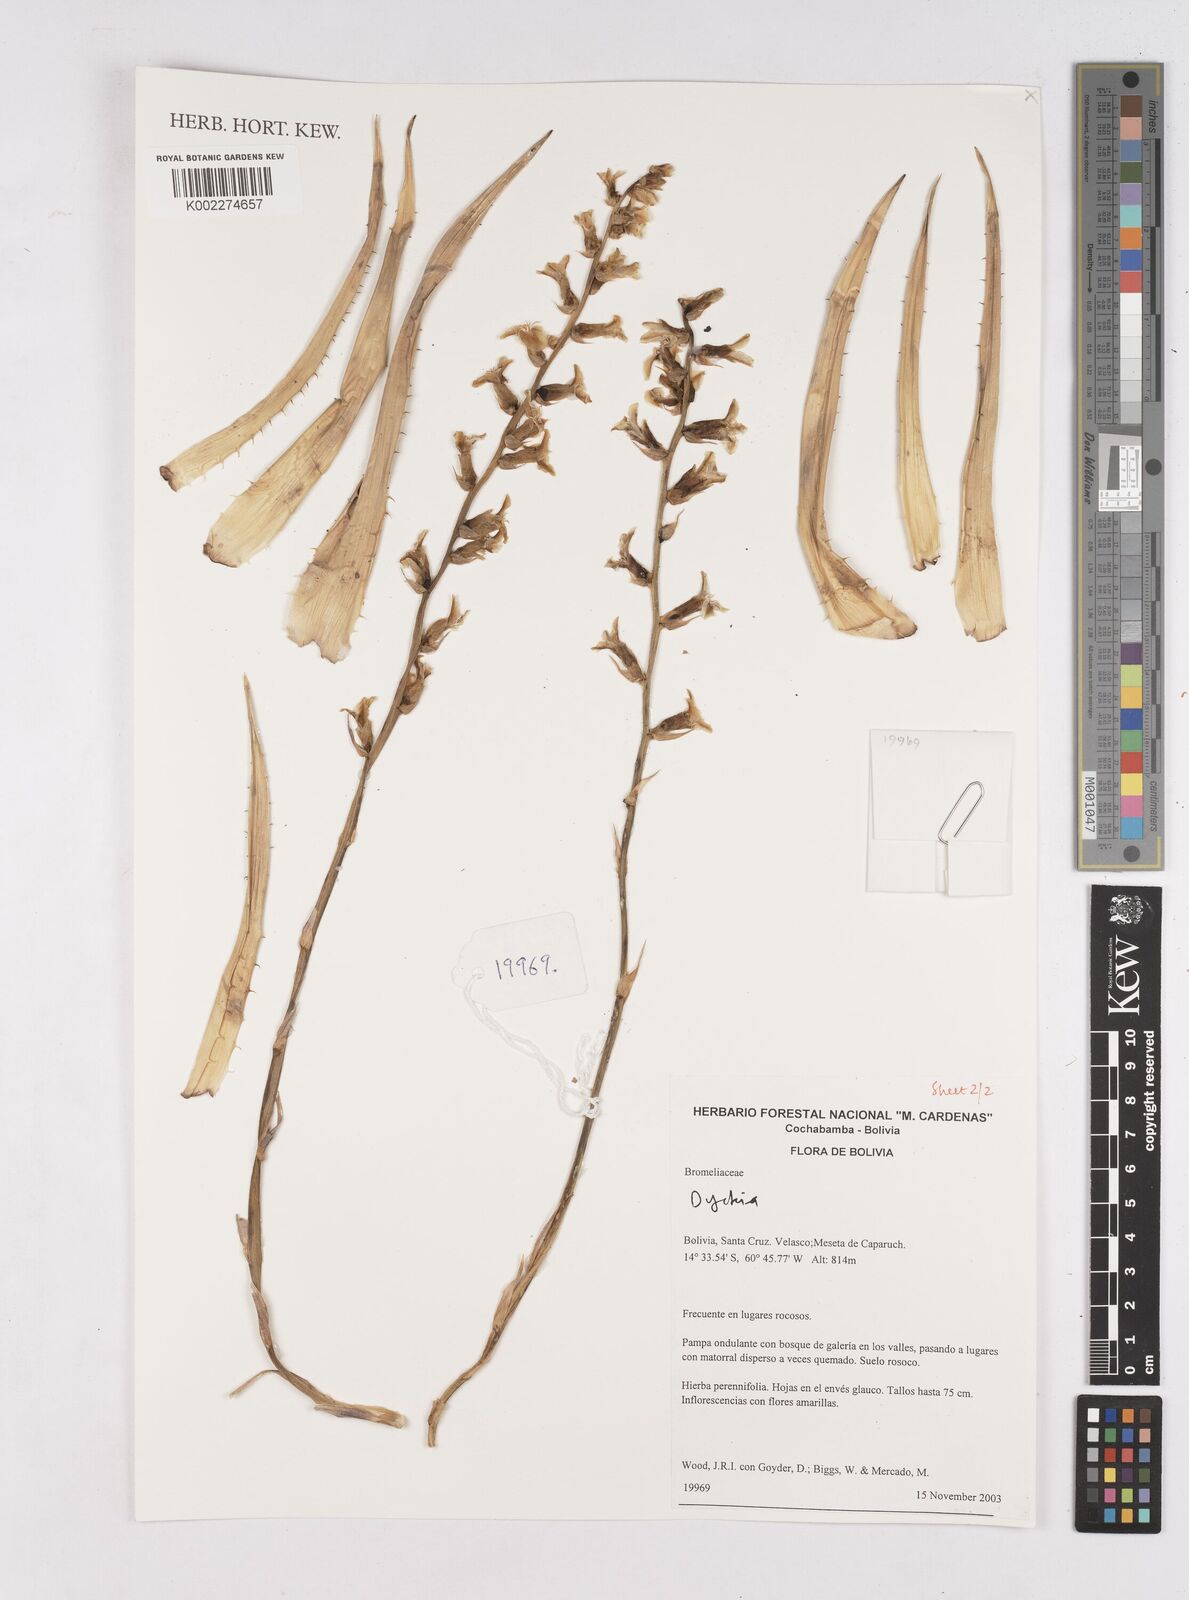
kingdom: Plantae
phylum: Tracheophyta
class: Liliopsida
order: Poales
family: Bromeliaceae
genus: Dyckia
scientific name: Dyckia
